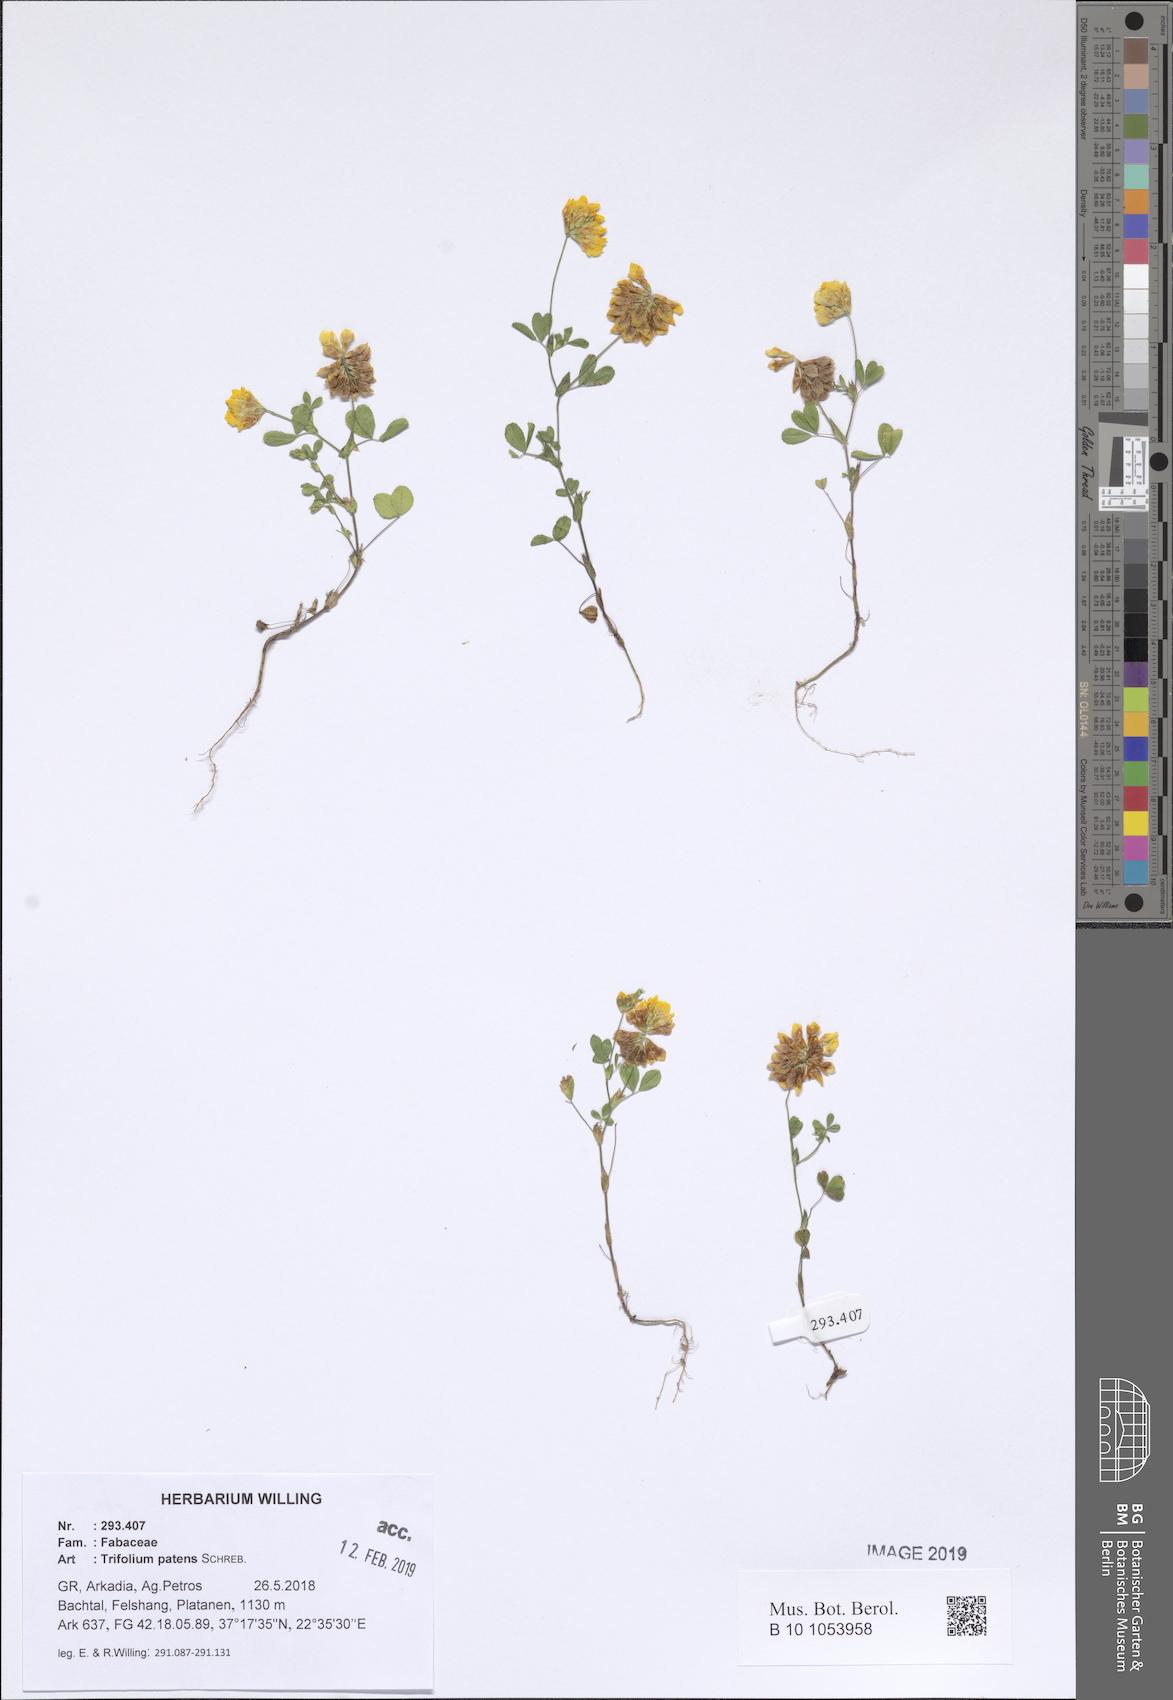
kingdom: Plantae
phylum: Tracheophyta
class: Magnoliopsida
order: Fabales
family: Fabaceae
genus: Trifolium
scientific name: Trifolium patens
